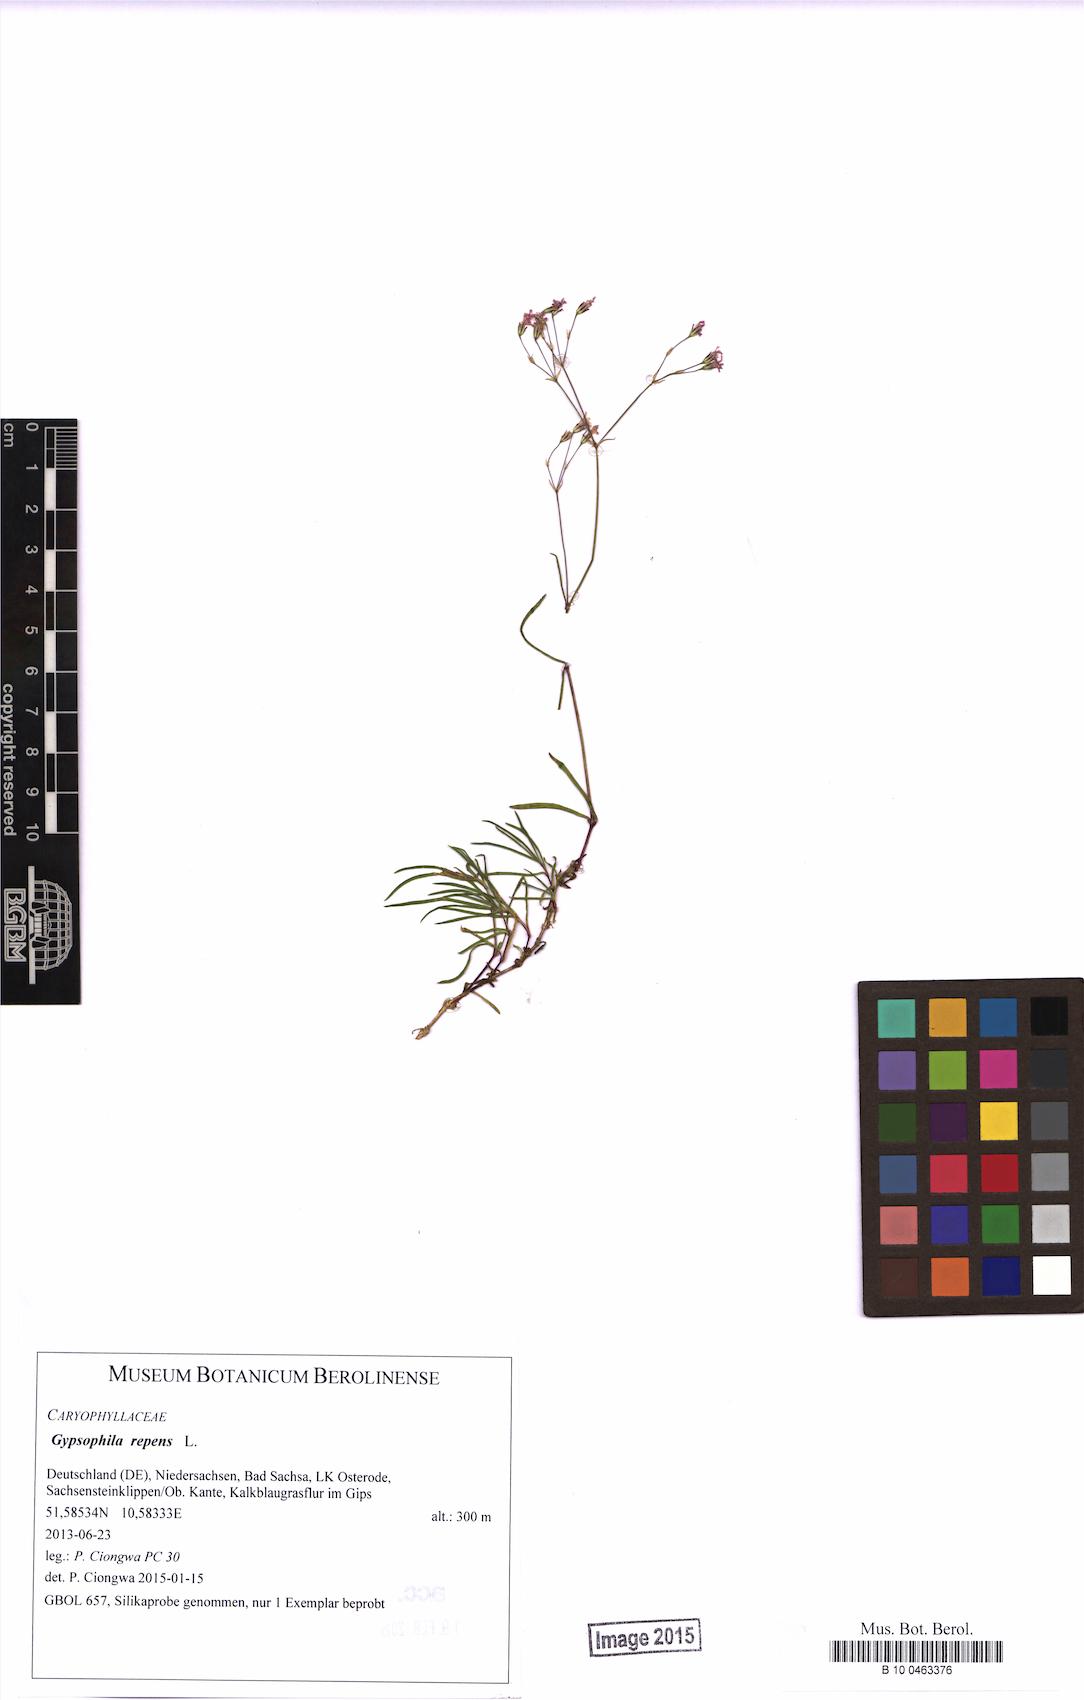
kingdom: Plantae
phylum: Tracheophyta
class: Magnoliopsida
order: Caryophyllales
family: Caryophyllaceae
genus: Gypsophila
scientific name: Gypsophila repens
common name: Creeping baby's-breath
